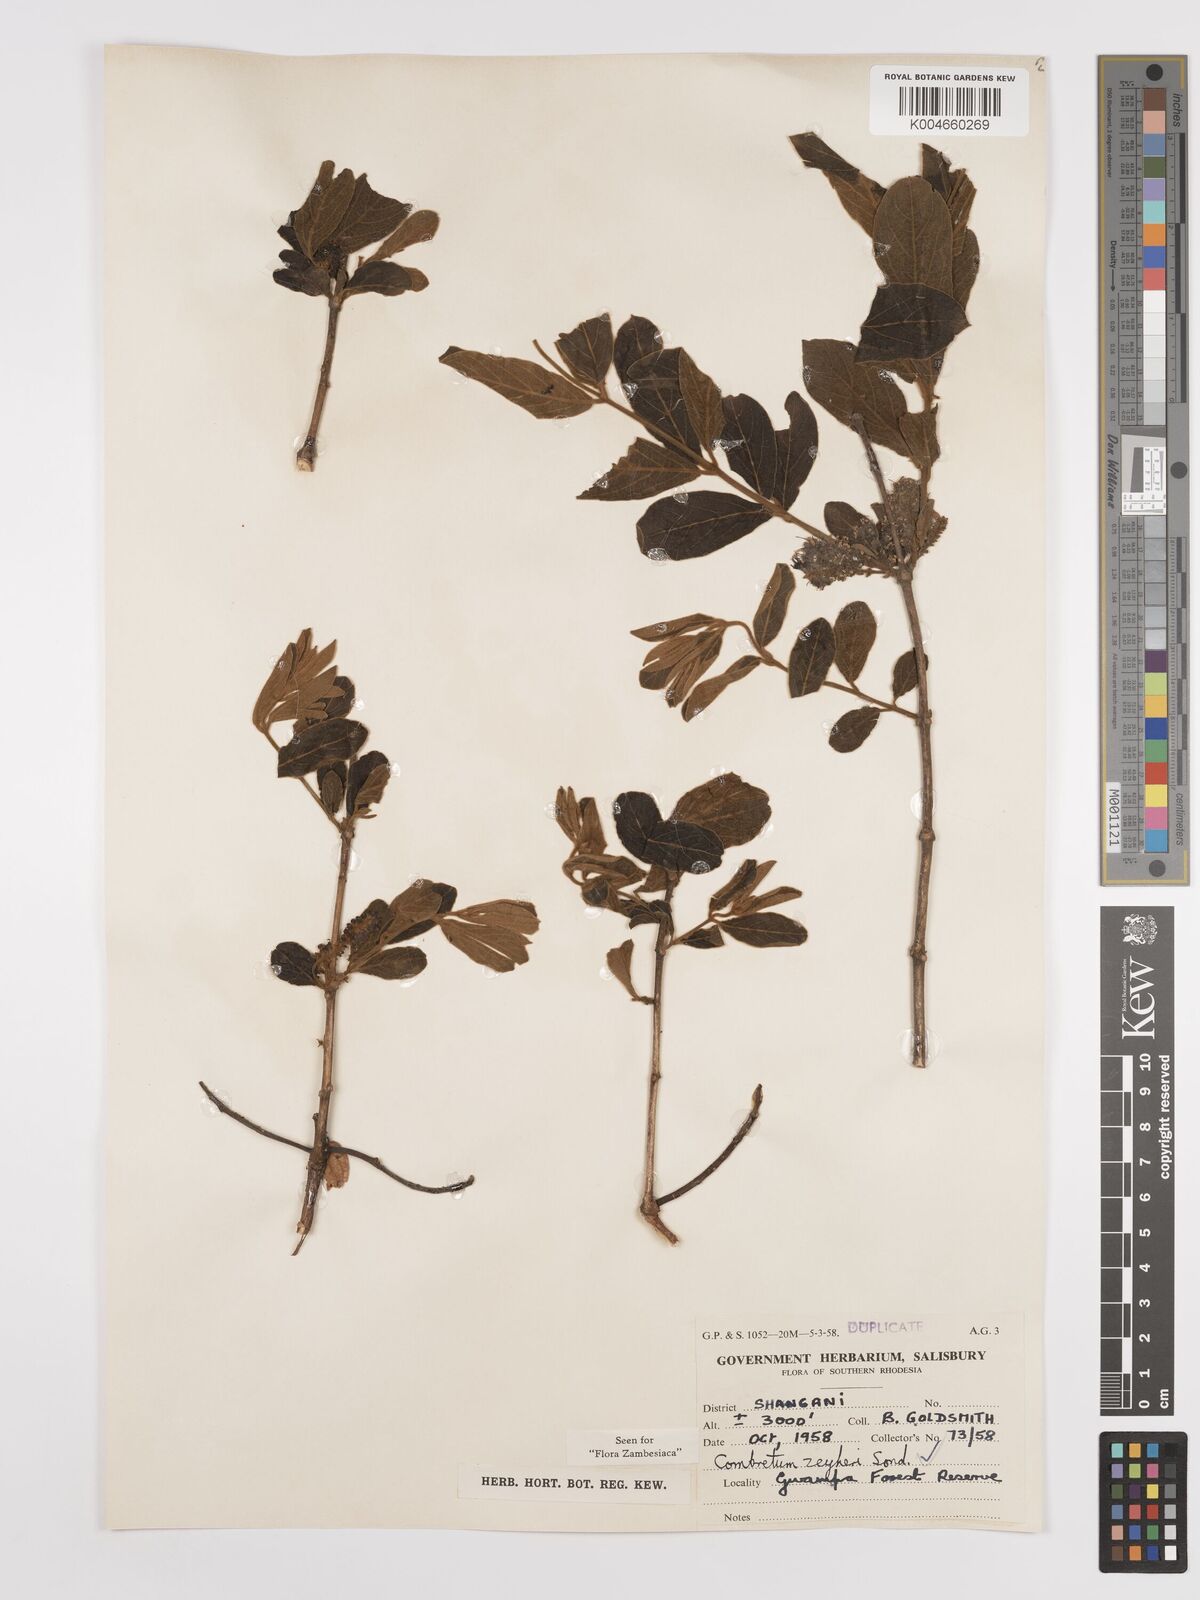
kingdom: Plantae
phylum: Tracheophyta
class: Magnoliopsida
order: Myrtales
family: Combretaceae
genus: Combretum
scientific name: Combretum zeyheri
